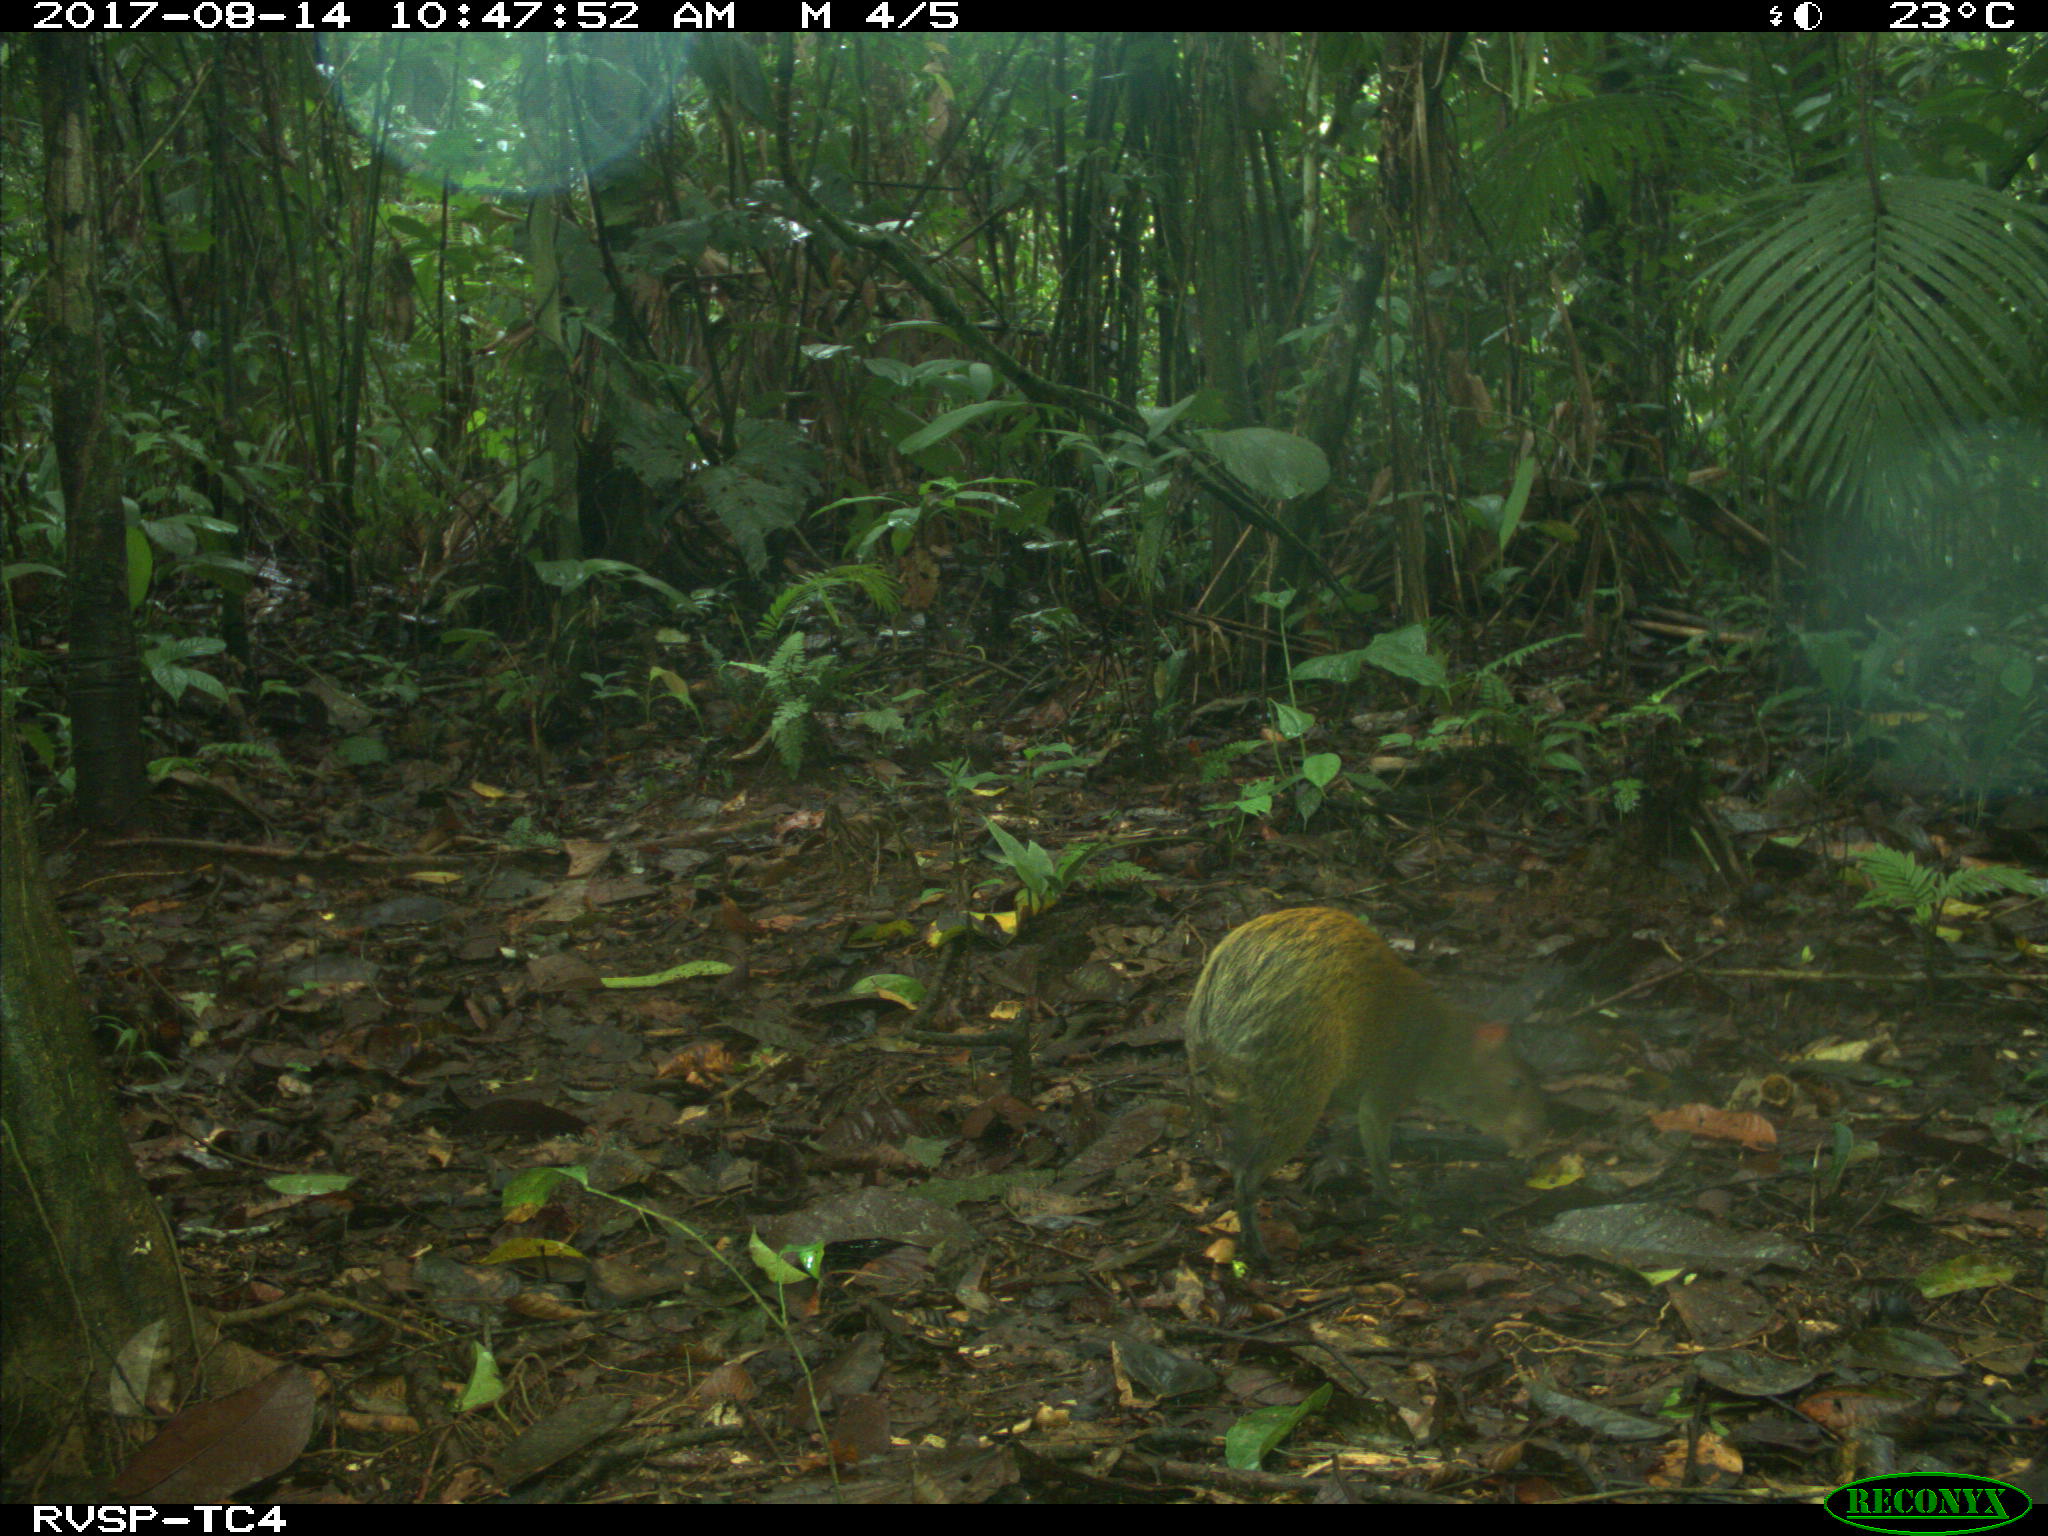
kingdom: Animalia
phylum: Chordata
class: Mammalia
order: Rodentia
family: Dasyproctidae
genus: Dasyprocta
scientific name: Dasyprocta punctata
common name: Central american agouti
